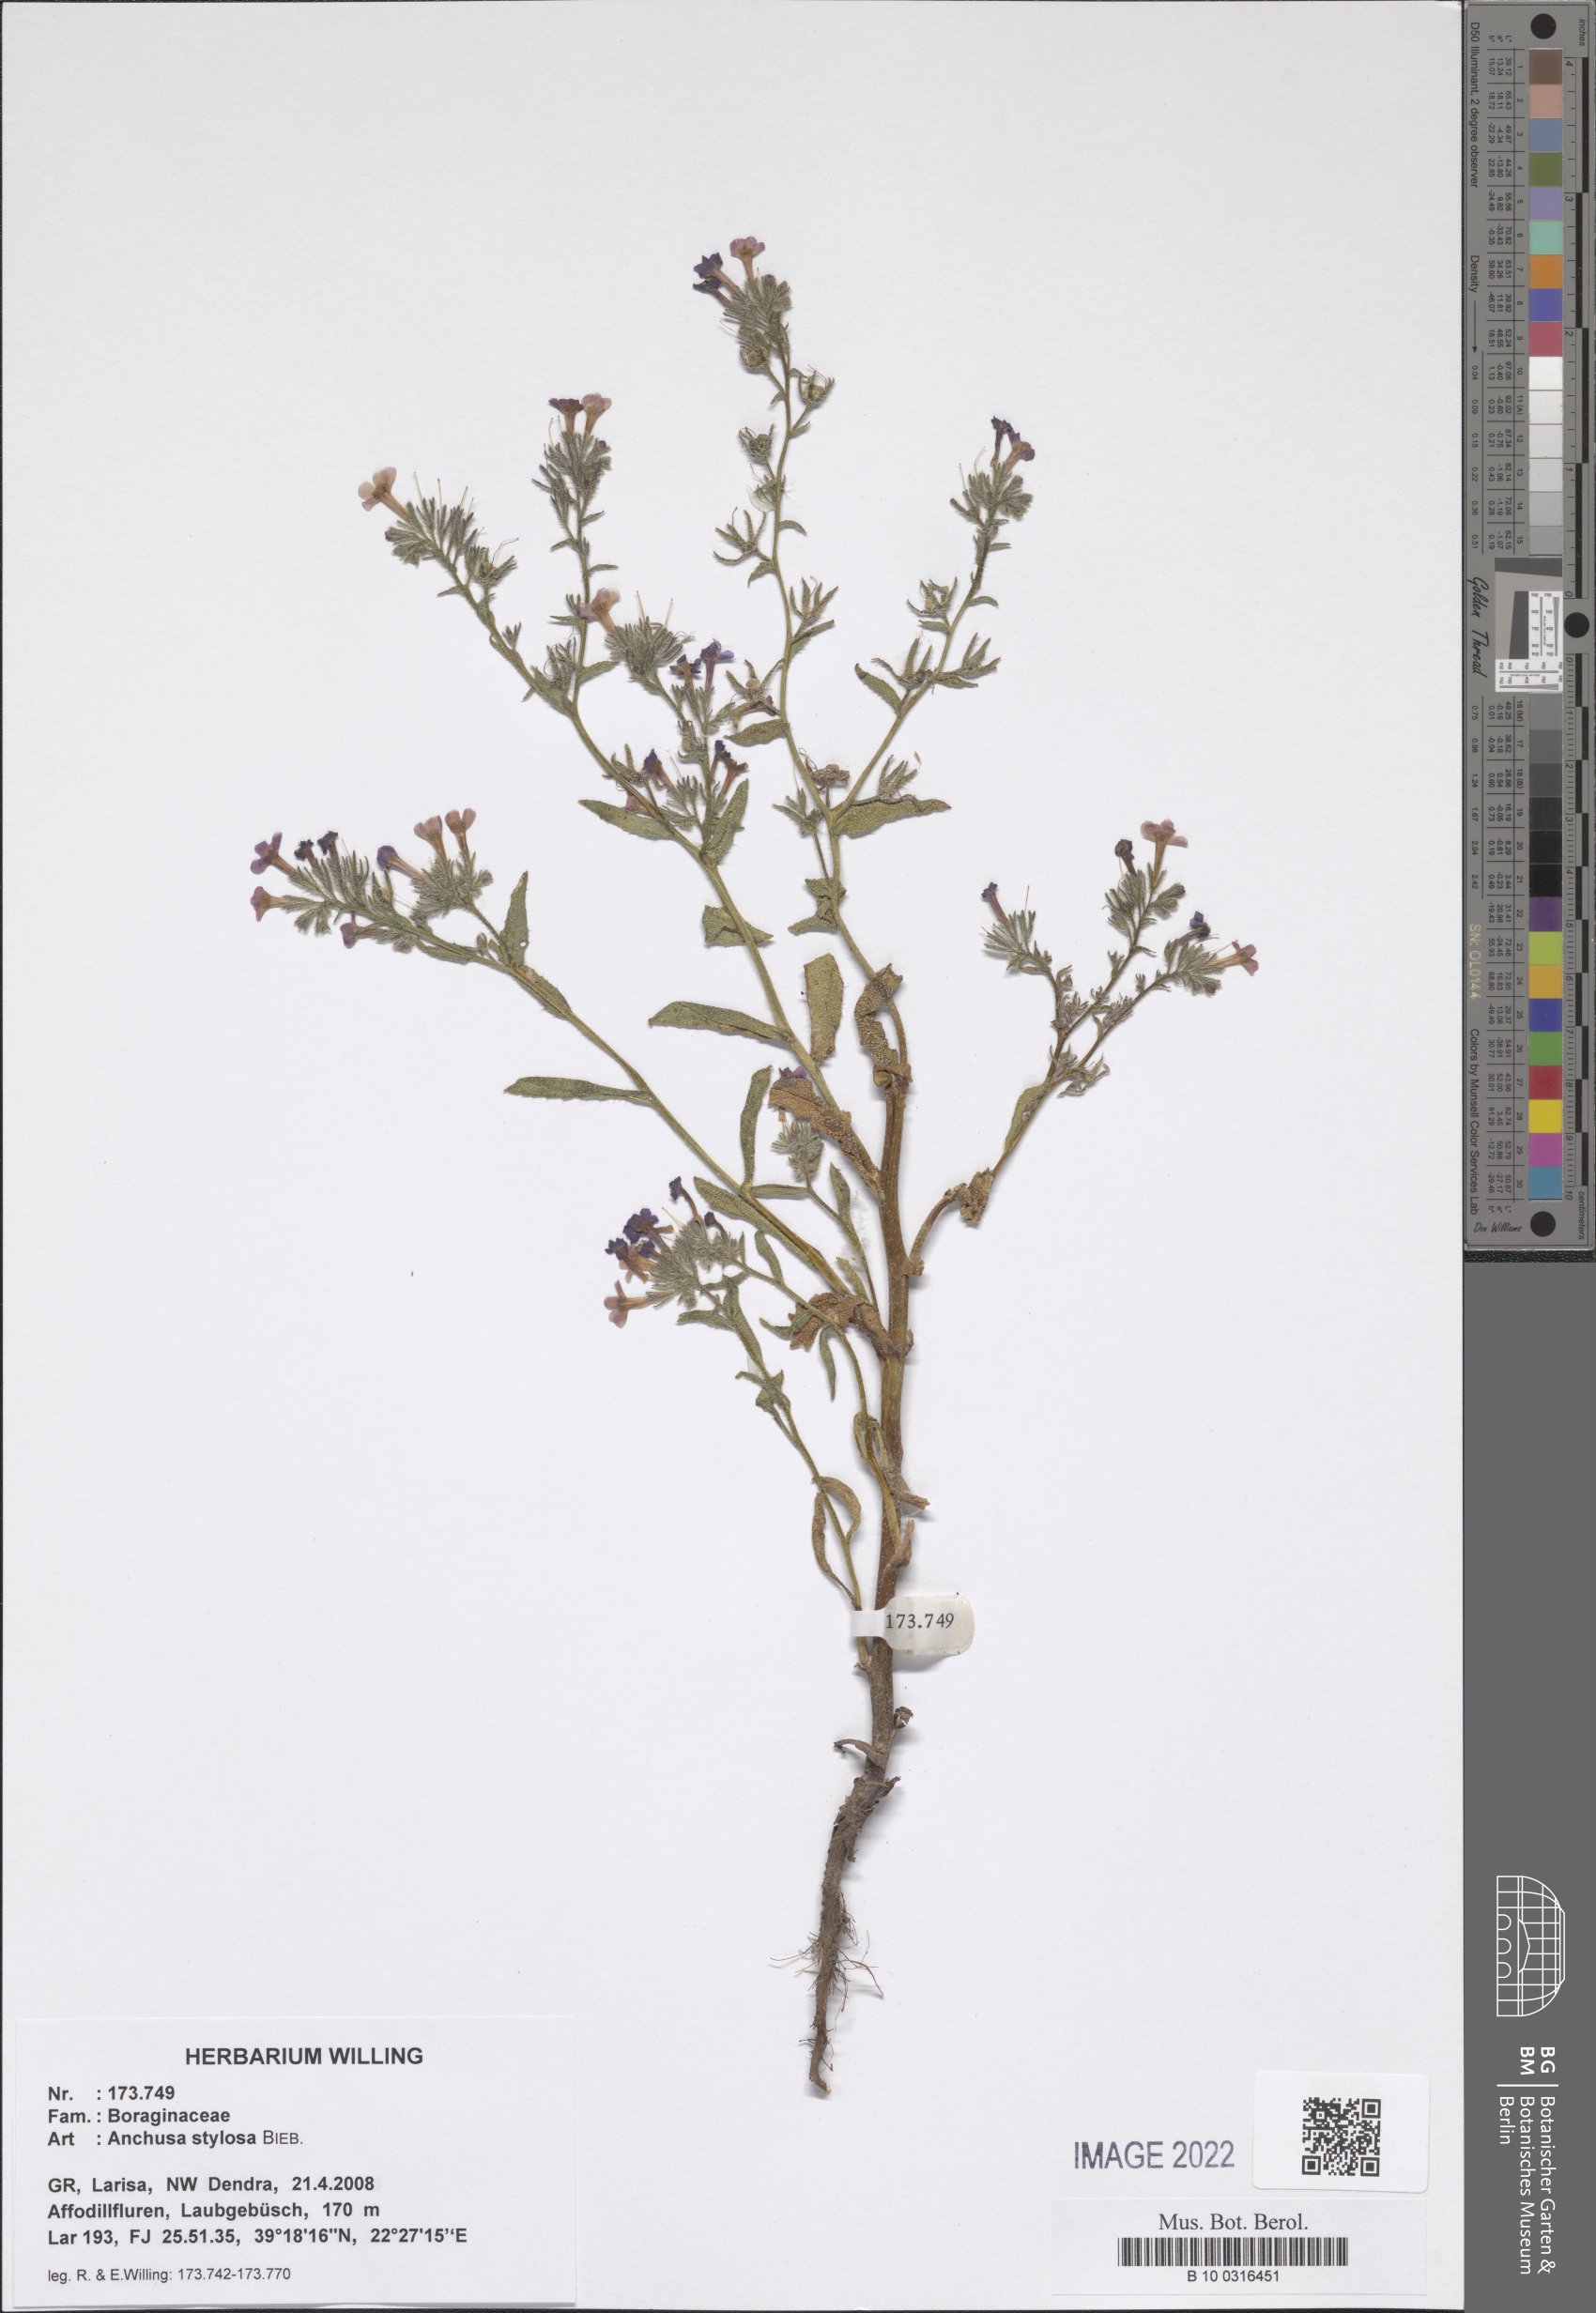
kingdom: Plantae
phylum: Tracheophyta
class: Magnoliopsida
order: Boraginales
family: Boraginaceae
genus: Anchusa
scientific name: Anchusa stylosa
